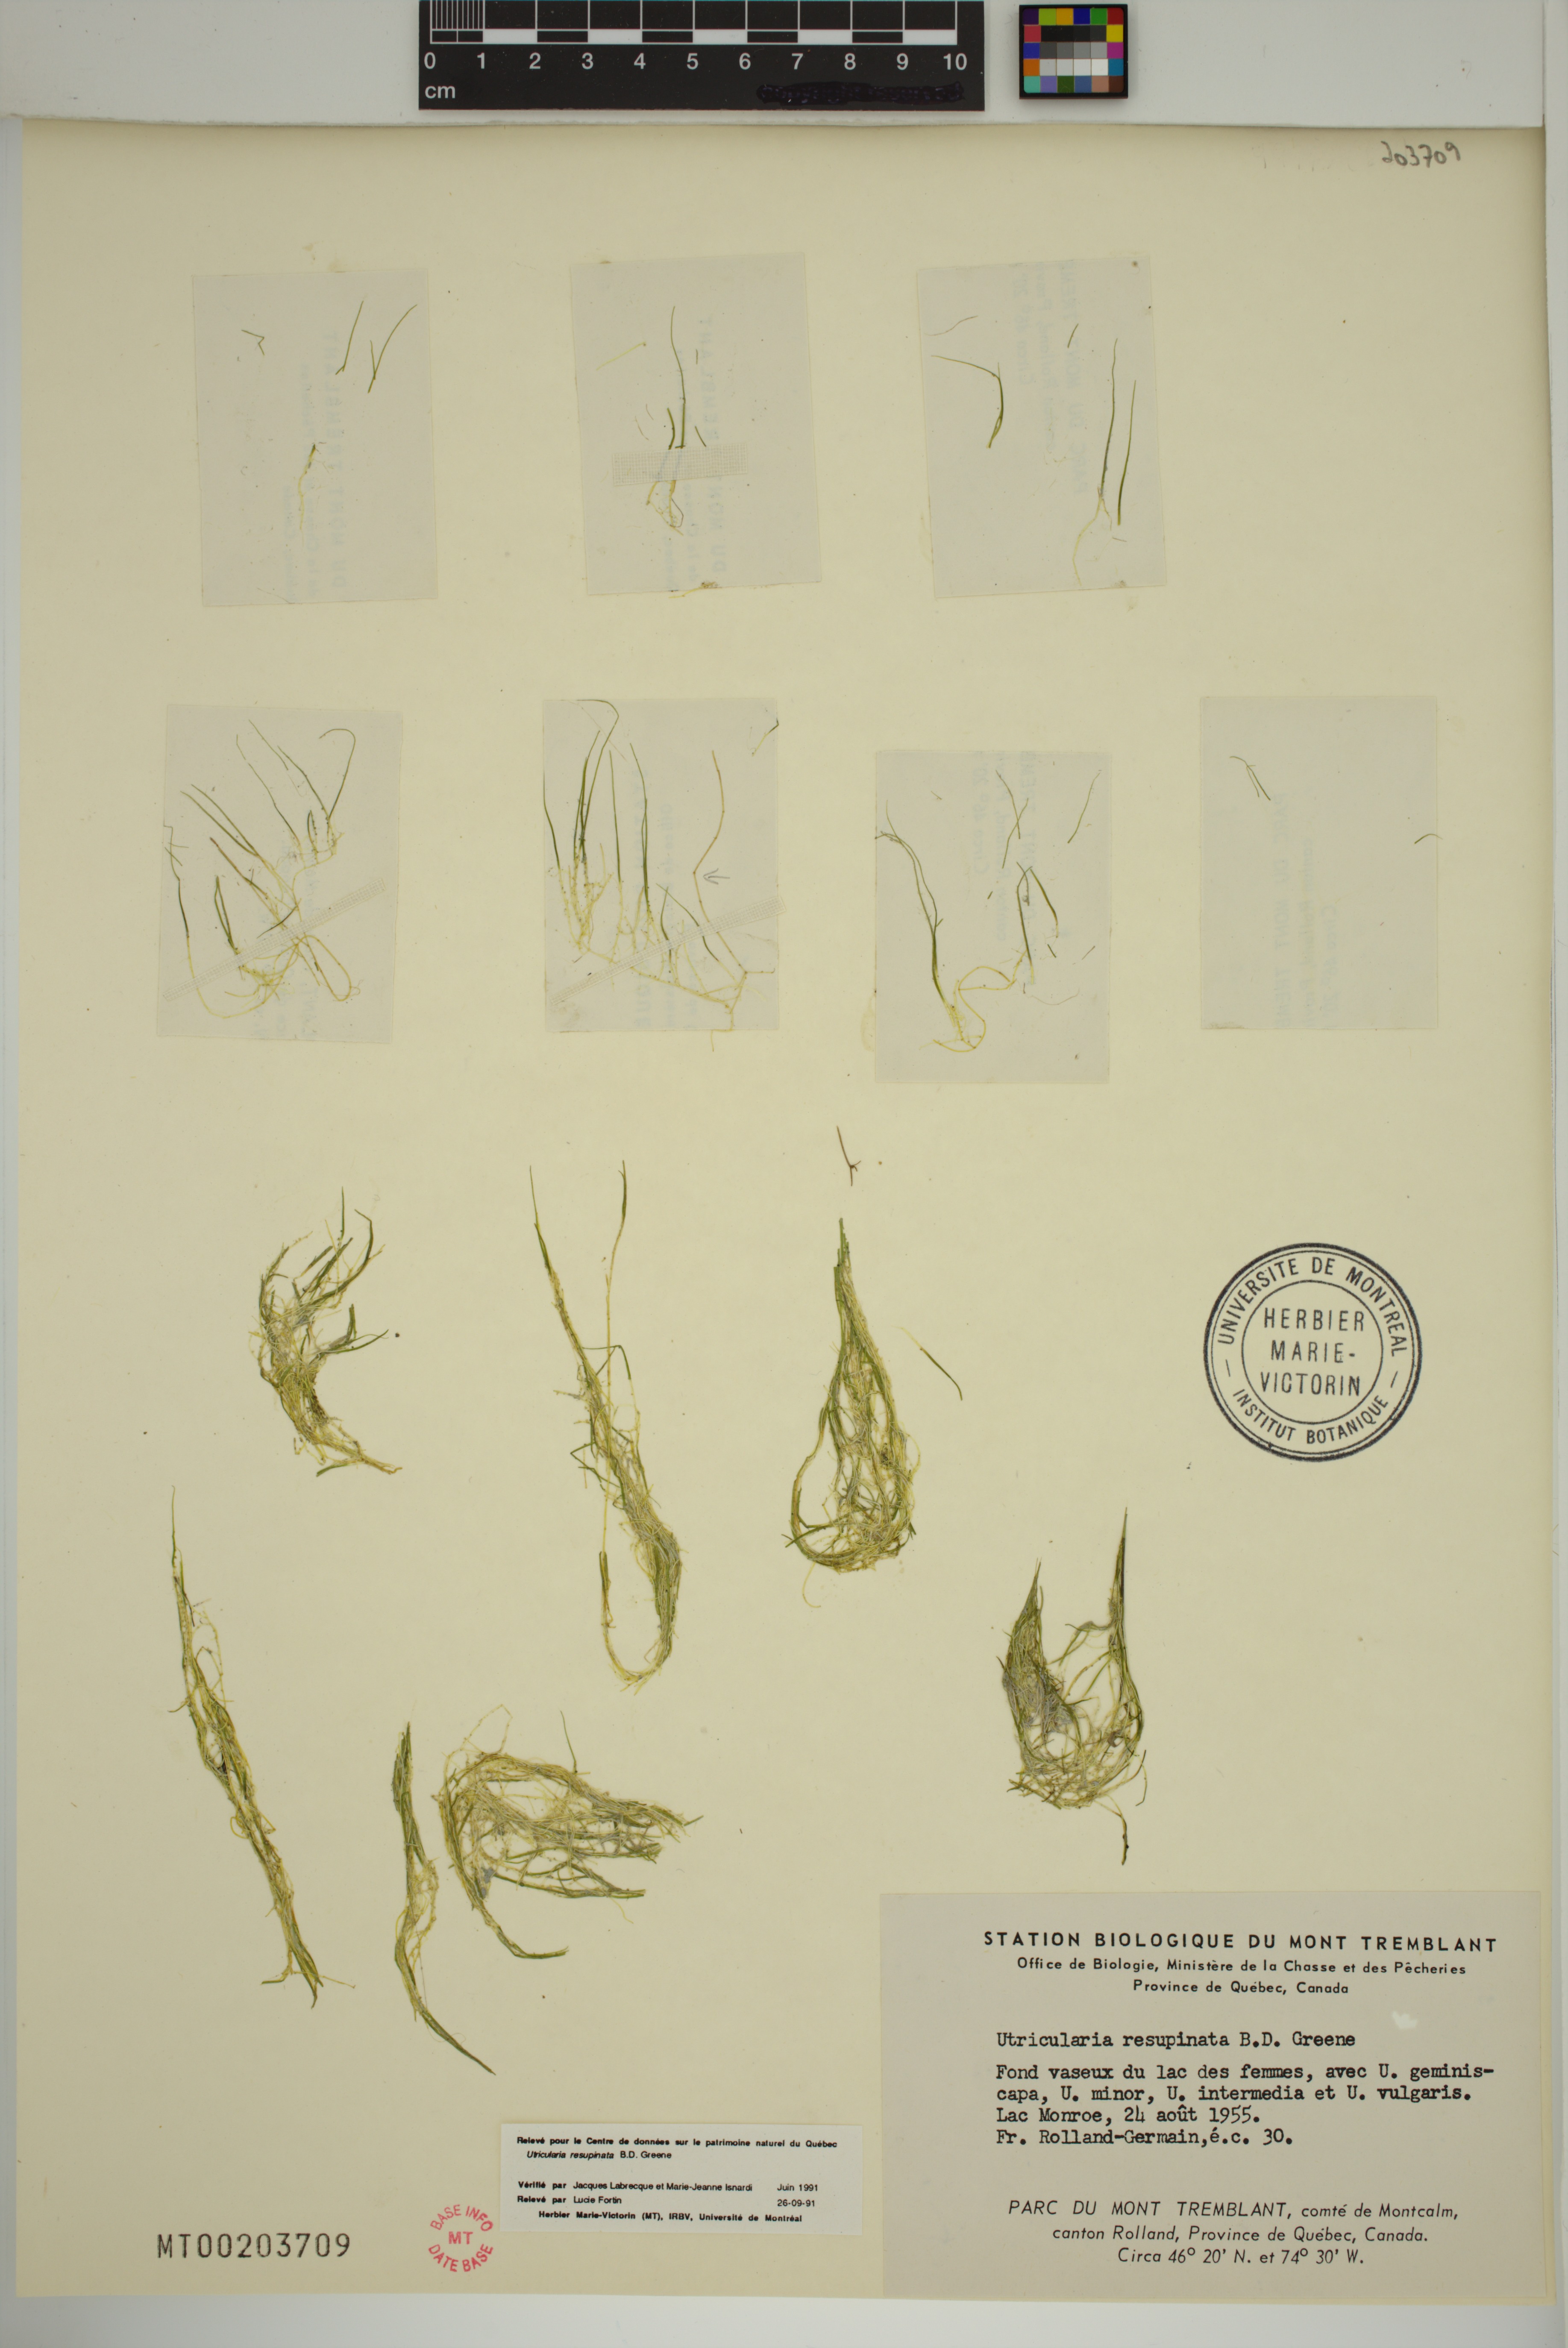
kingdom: Plantae
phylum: Tracheophyta
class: Magnoliopsida
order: Lamiales
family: Lentibulariaceae
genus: Utricularia
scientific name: Utricularia resupinata
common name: Northeastern bladderwort
